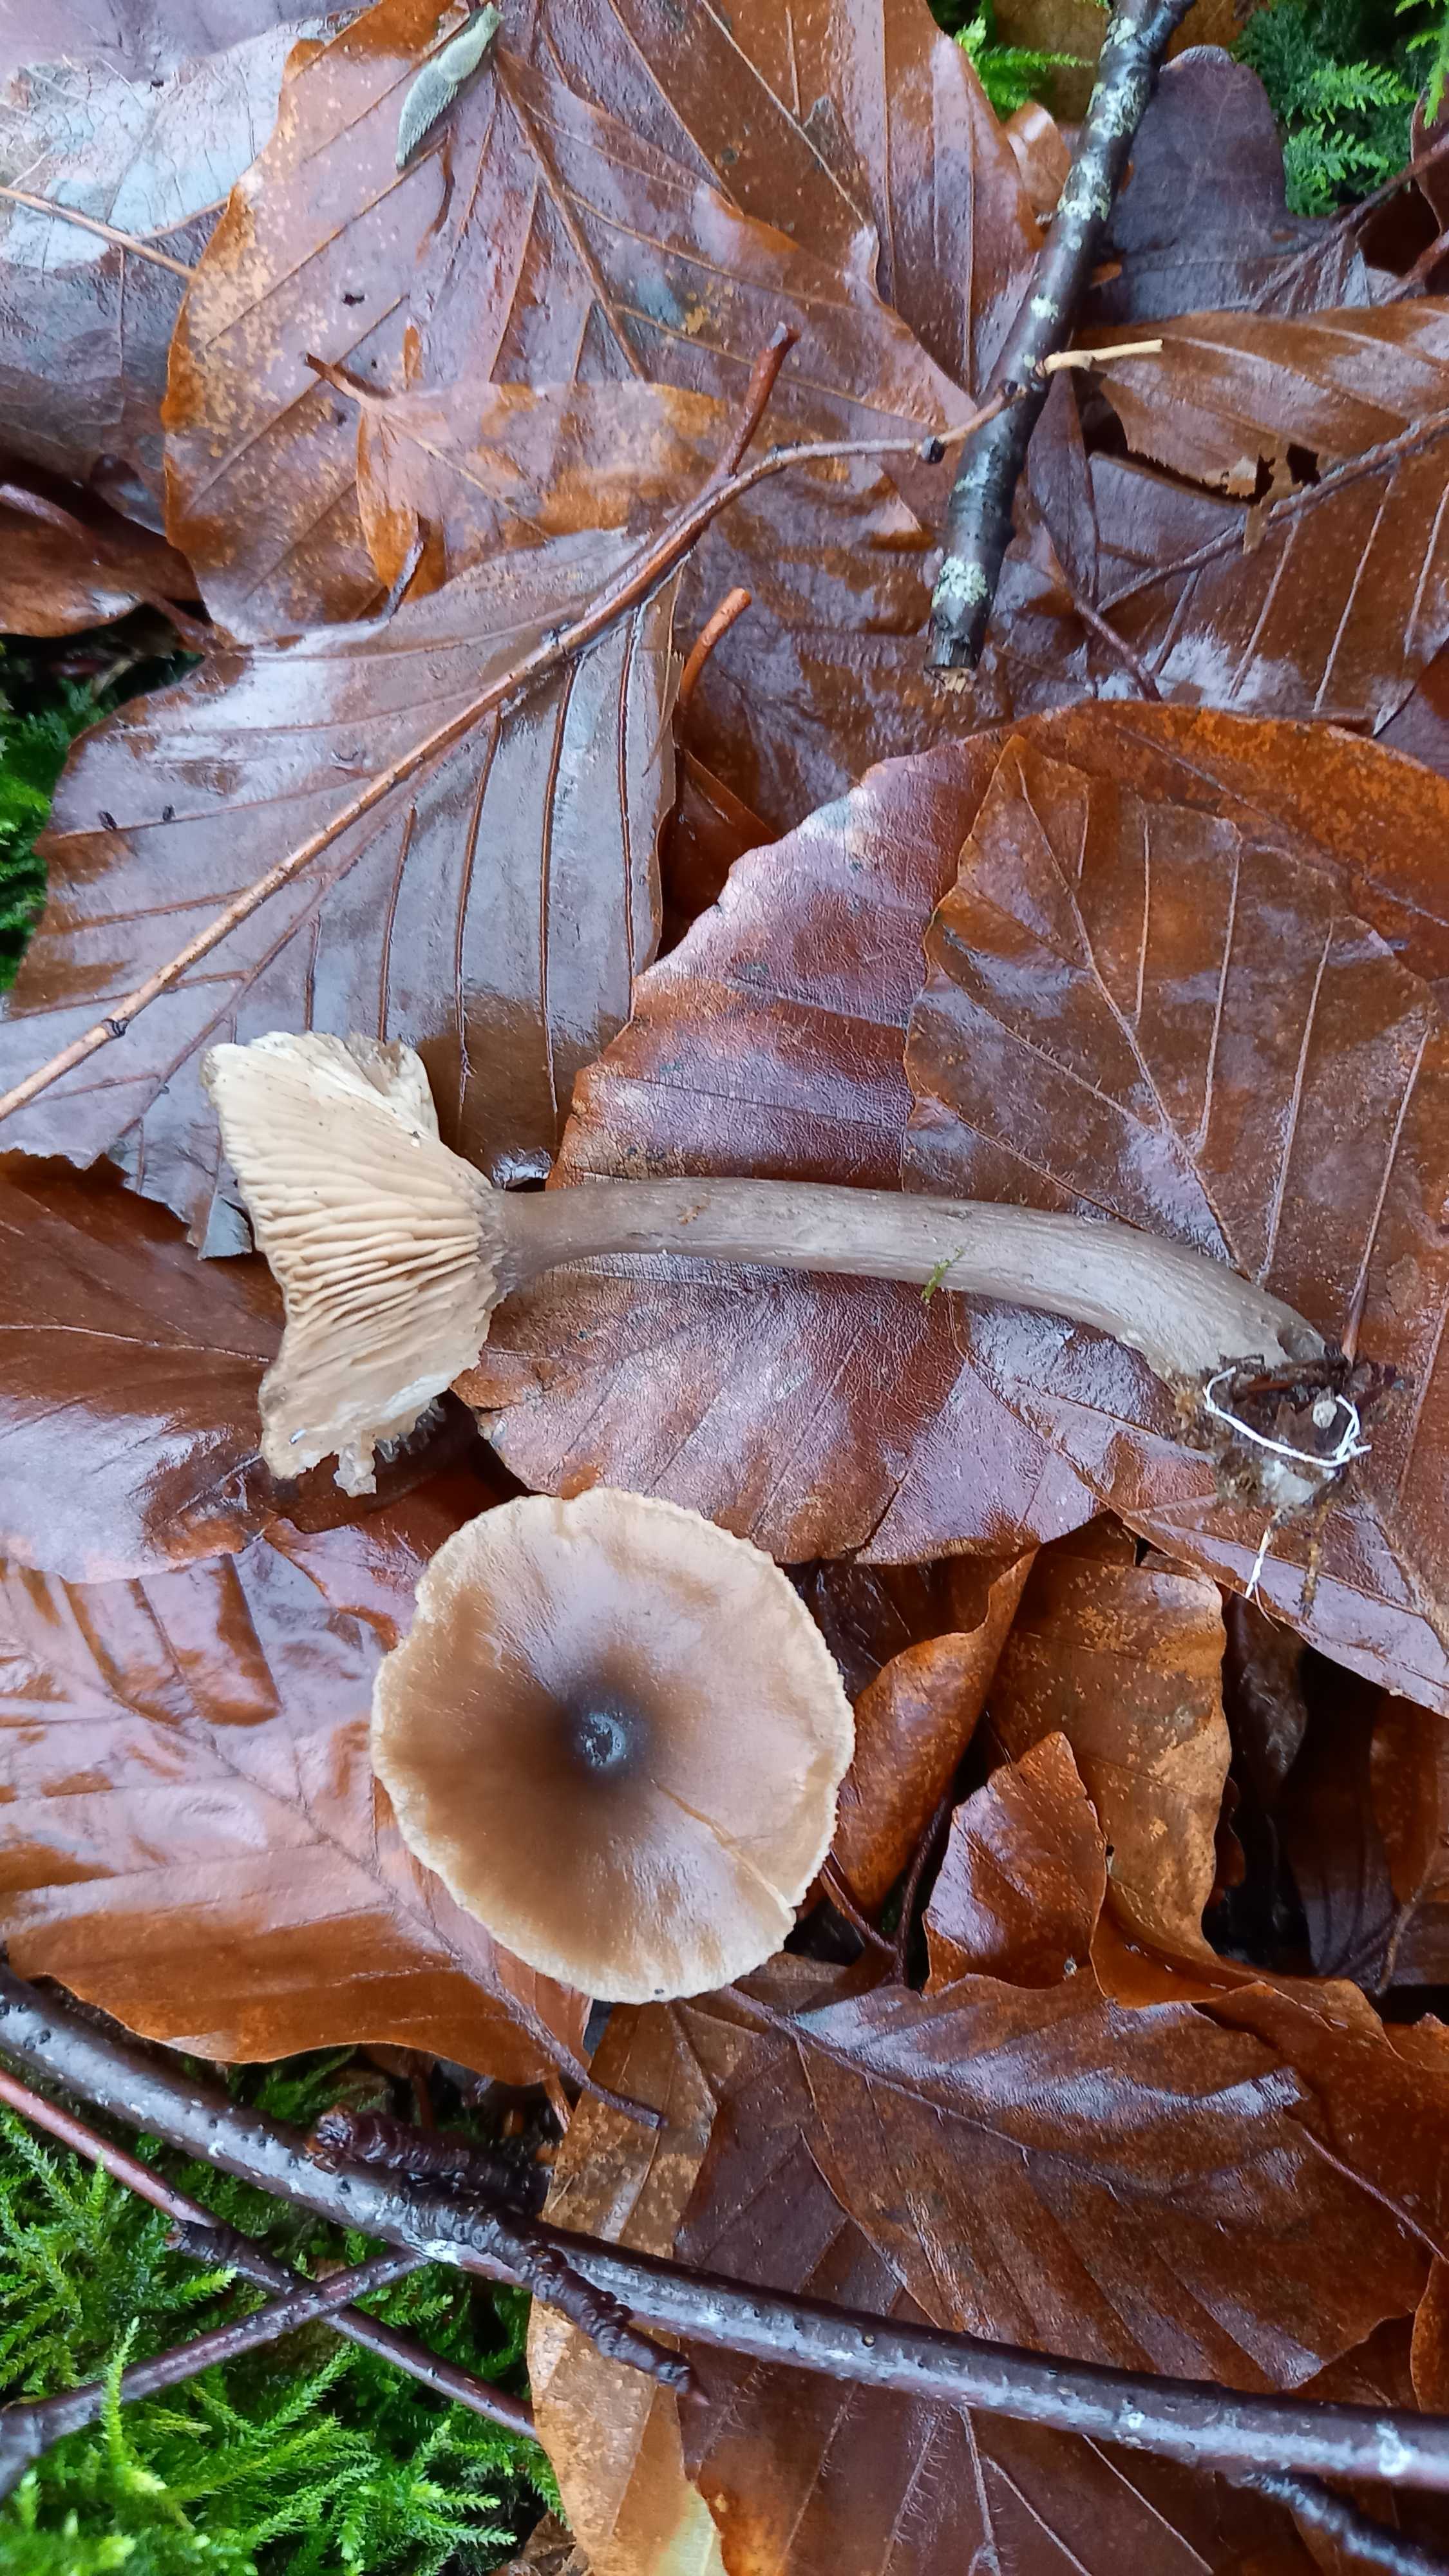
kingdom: Fungi
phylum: Basidiomycota
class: Agaricomycetes
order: Agaricales
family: Pseudoclitocybaceae
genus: Pseudoclitocybe
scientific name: Pseudoclitocybe cyathiformis
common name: almindelig bægertragthat
